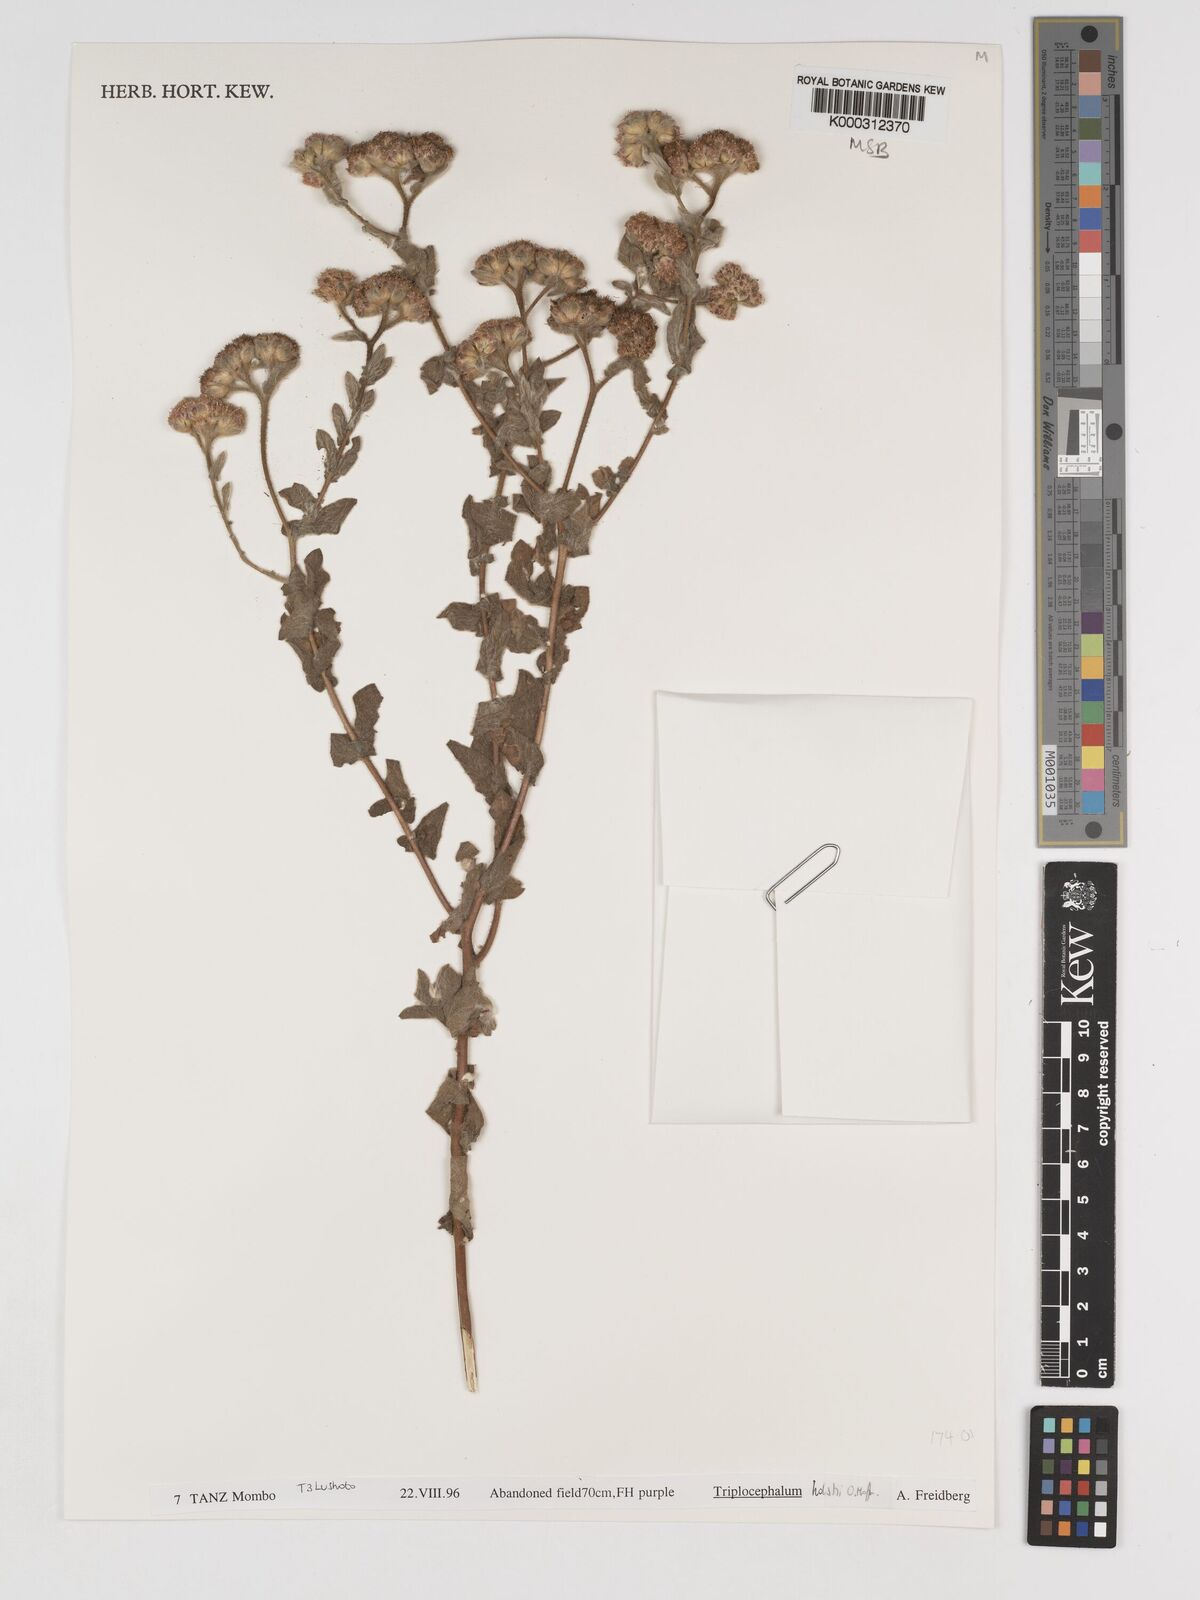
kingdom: Plantae
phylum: Tracheophyta
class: Magnoliopsida
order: Asterales
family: Asteraceae
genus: Triplocephalum
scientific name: Triplocephalum holstii
